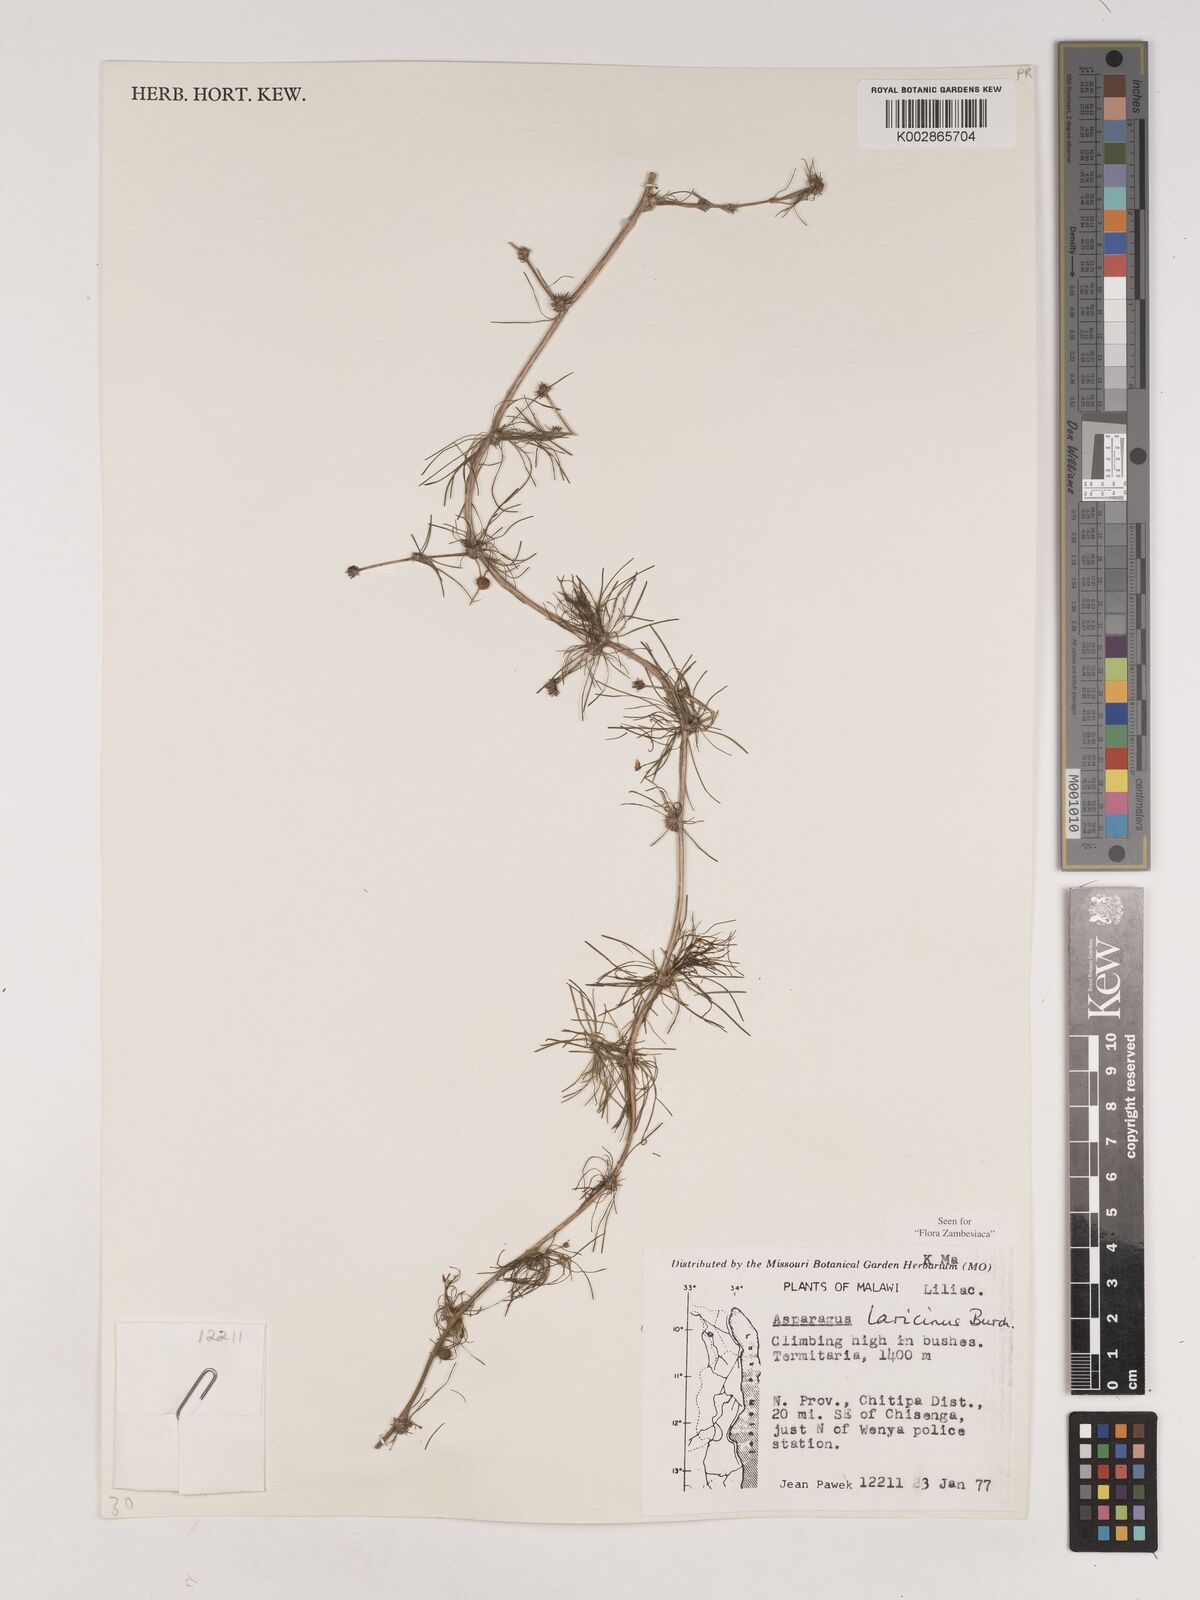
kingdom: Plantae
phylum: Tracheophyta
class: Liliopsida
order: Asparagales
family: Asparagaceae
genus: Asparagus
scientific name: Asparagus laricinus
